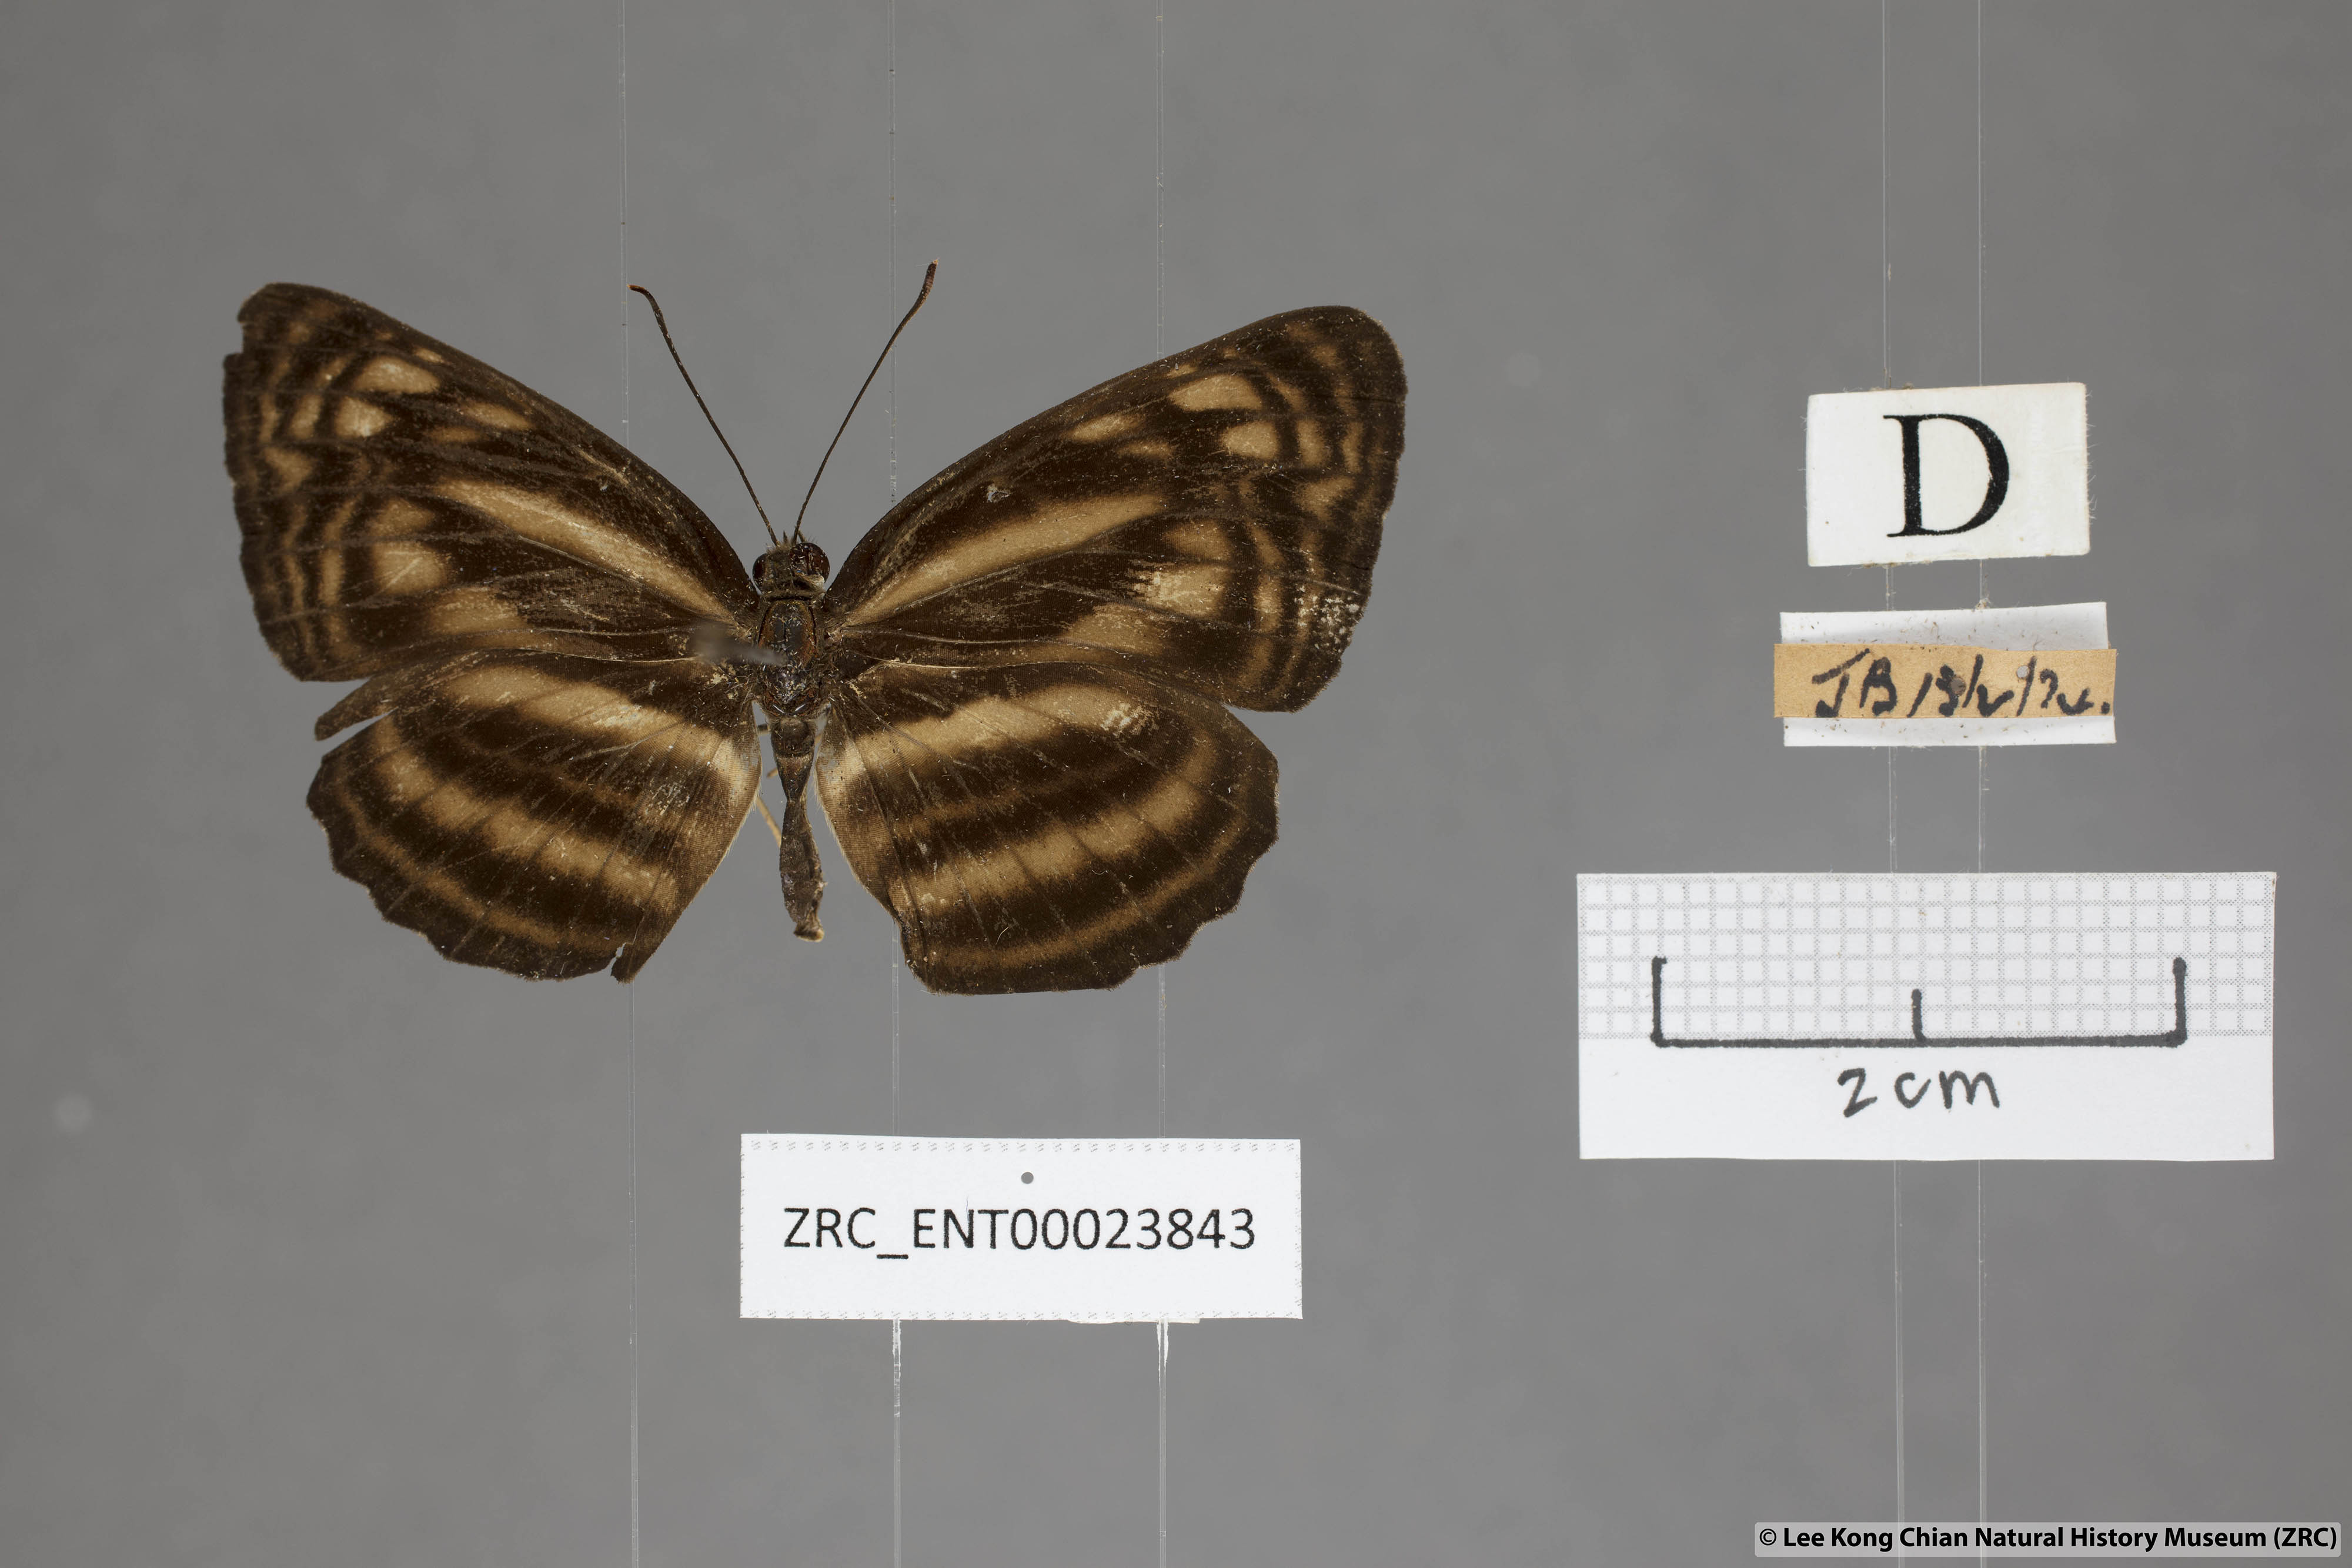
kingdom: Animalia
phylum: Arthropoda
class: Insecta
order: Lepidoptera
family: Nymphalidae
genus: Lasippa
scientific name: Lasippa monata
